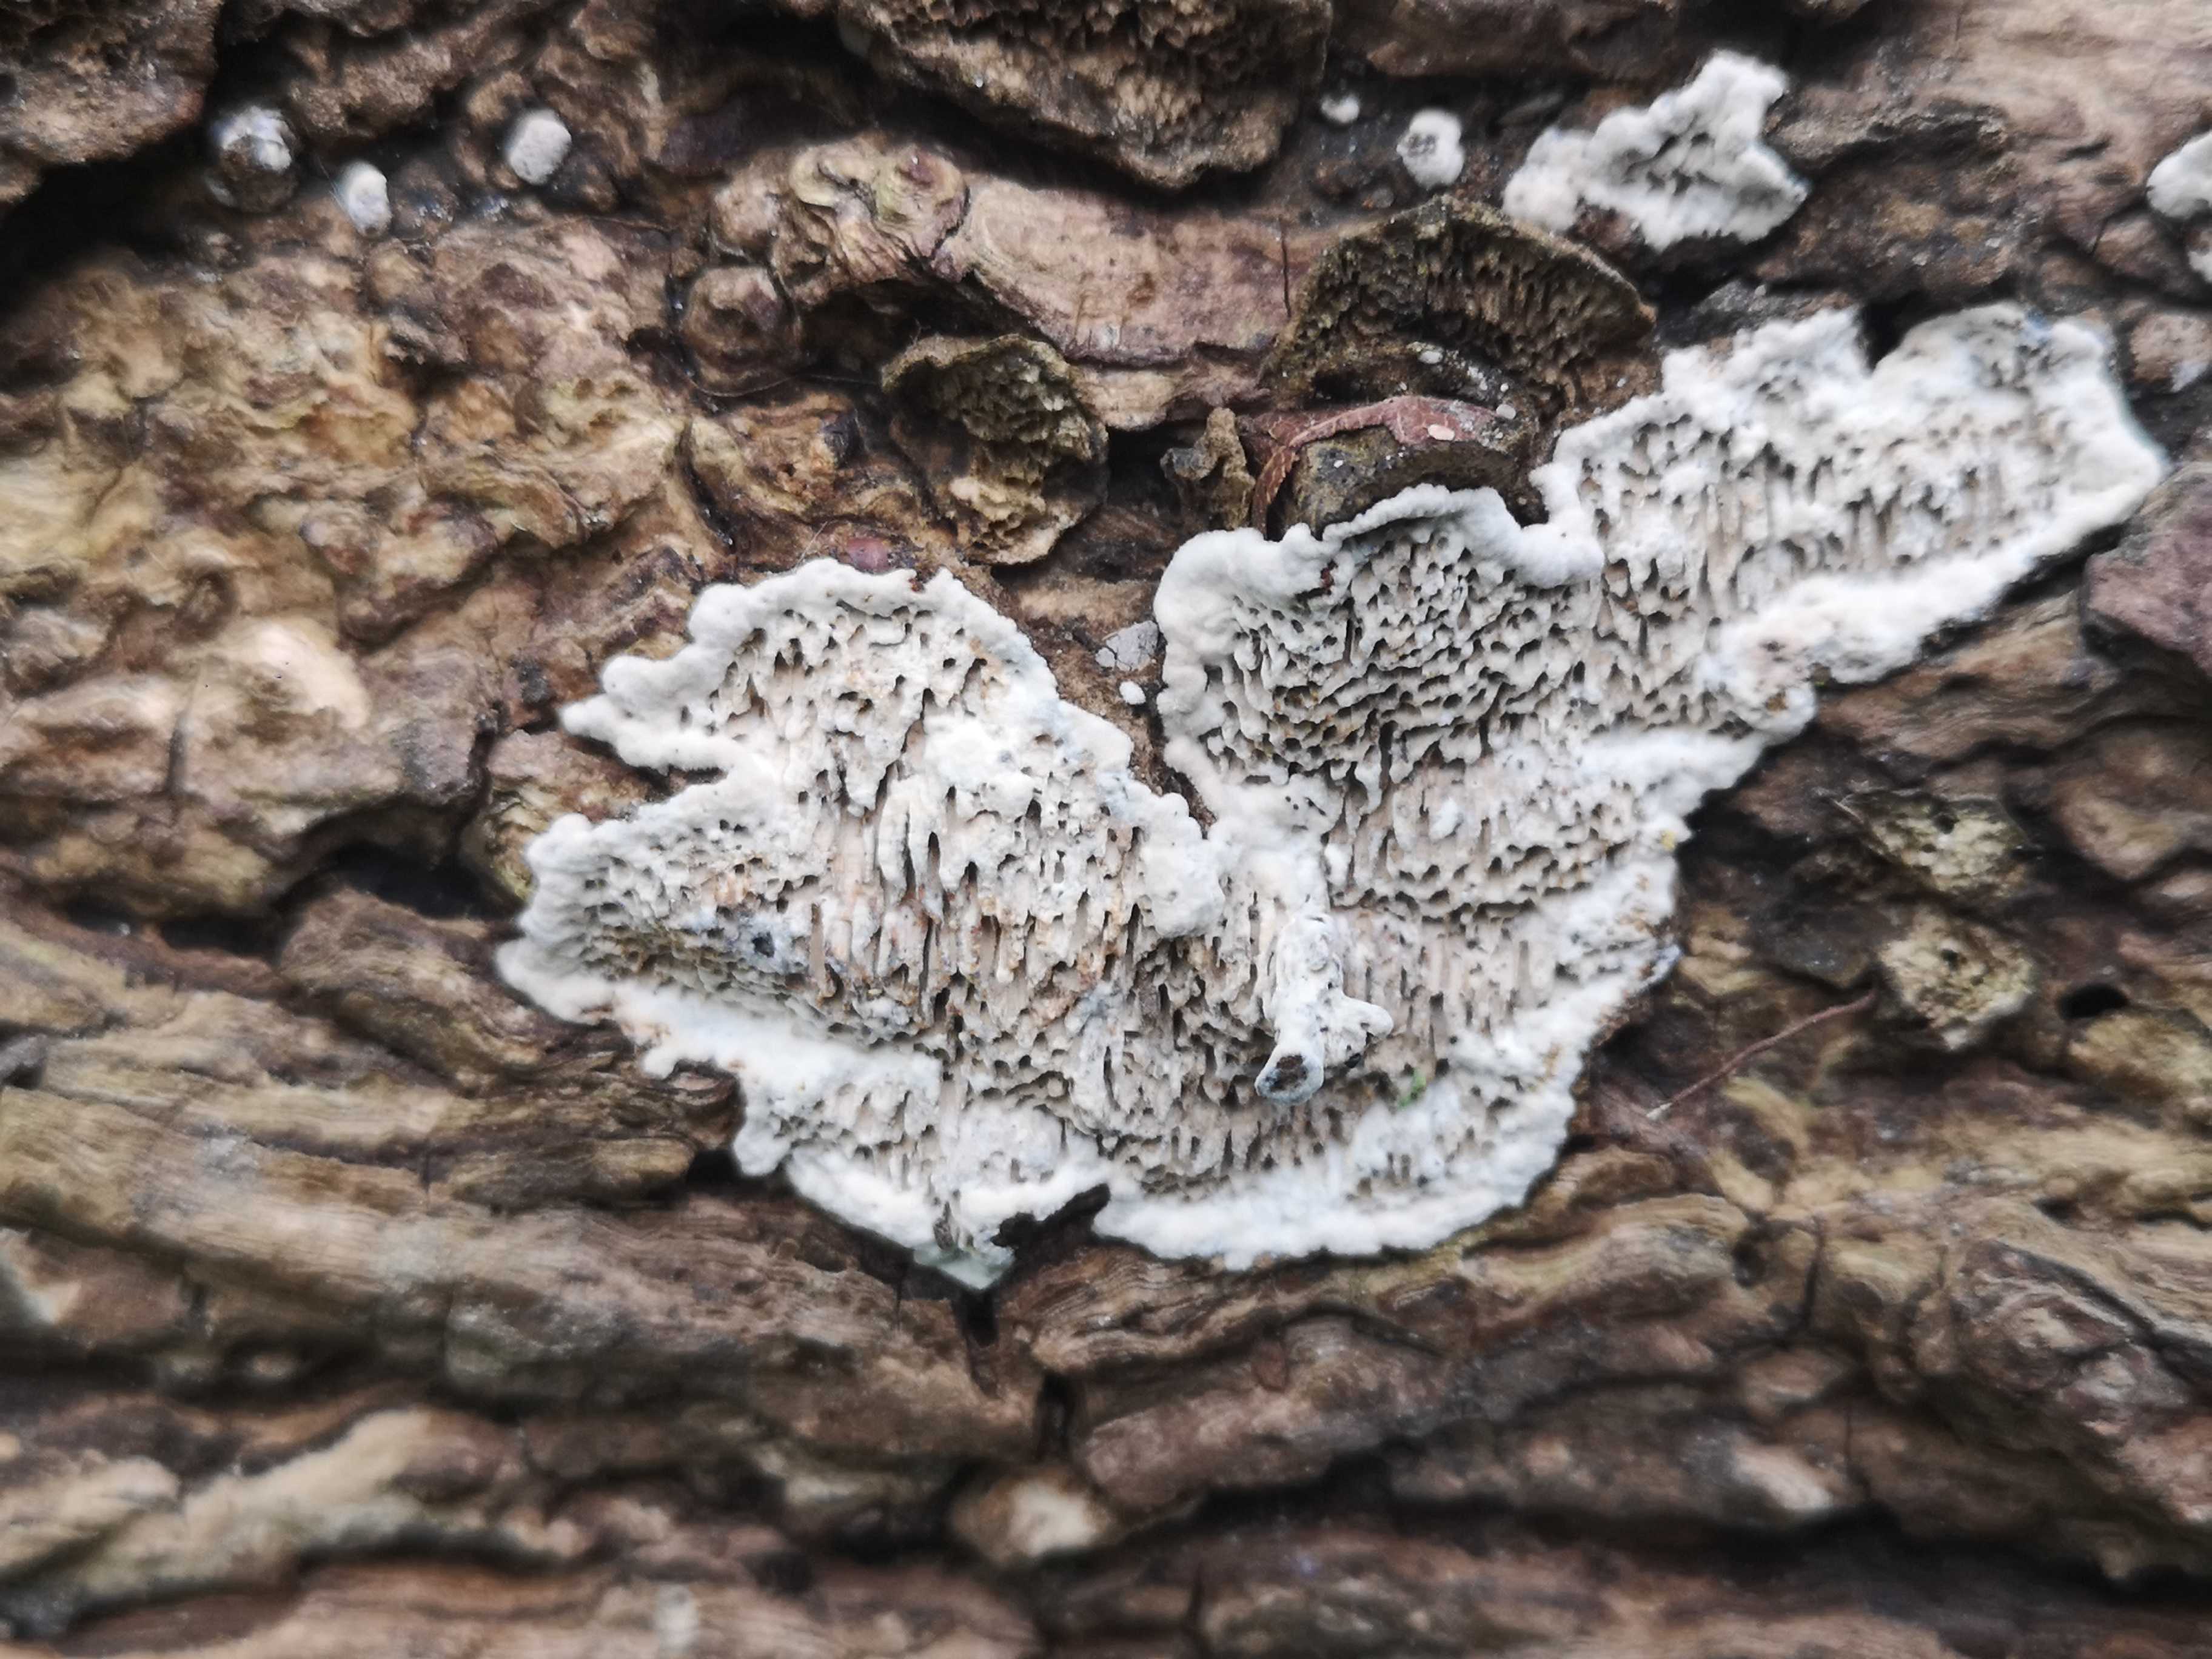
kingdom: Fungi
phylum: Basidiomycota
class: Agaricomycetes
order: Polyporales
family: Polyporaceae
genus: Podofomes
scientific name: Podofomes mollis
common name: blød begporesvamp
